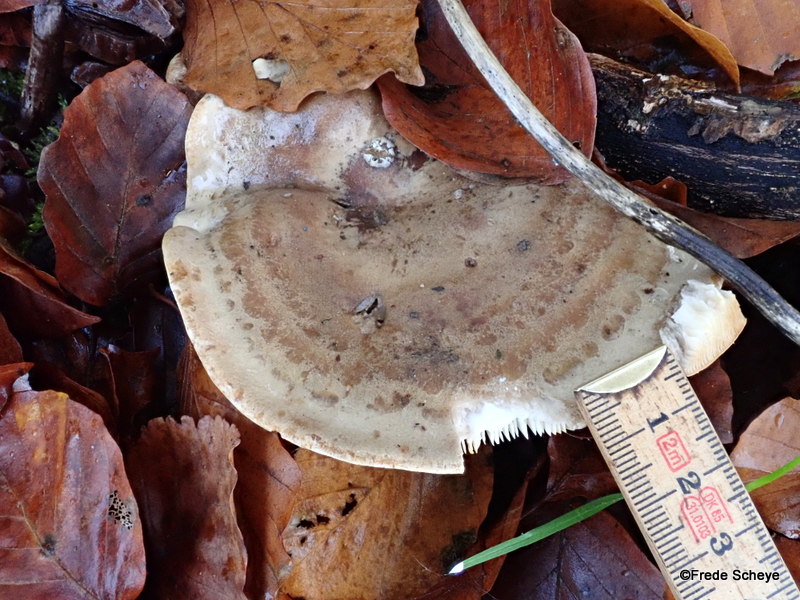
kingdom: Fungi
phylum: Basidiomycota
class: Agaricomycetes
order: Russulales
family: Russulaceae
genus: Lactarius
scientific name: Lactarius blennius
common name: dråbeplettet mælkehat
